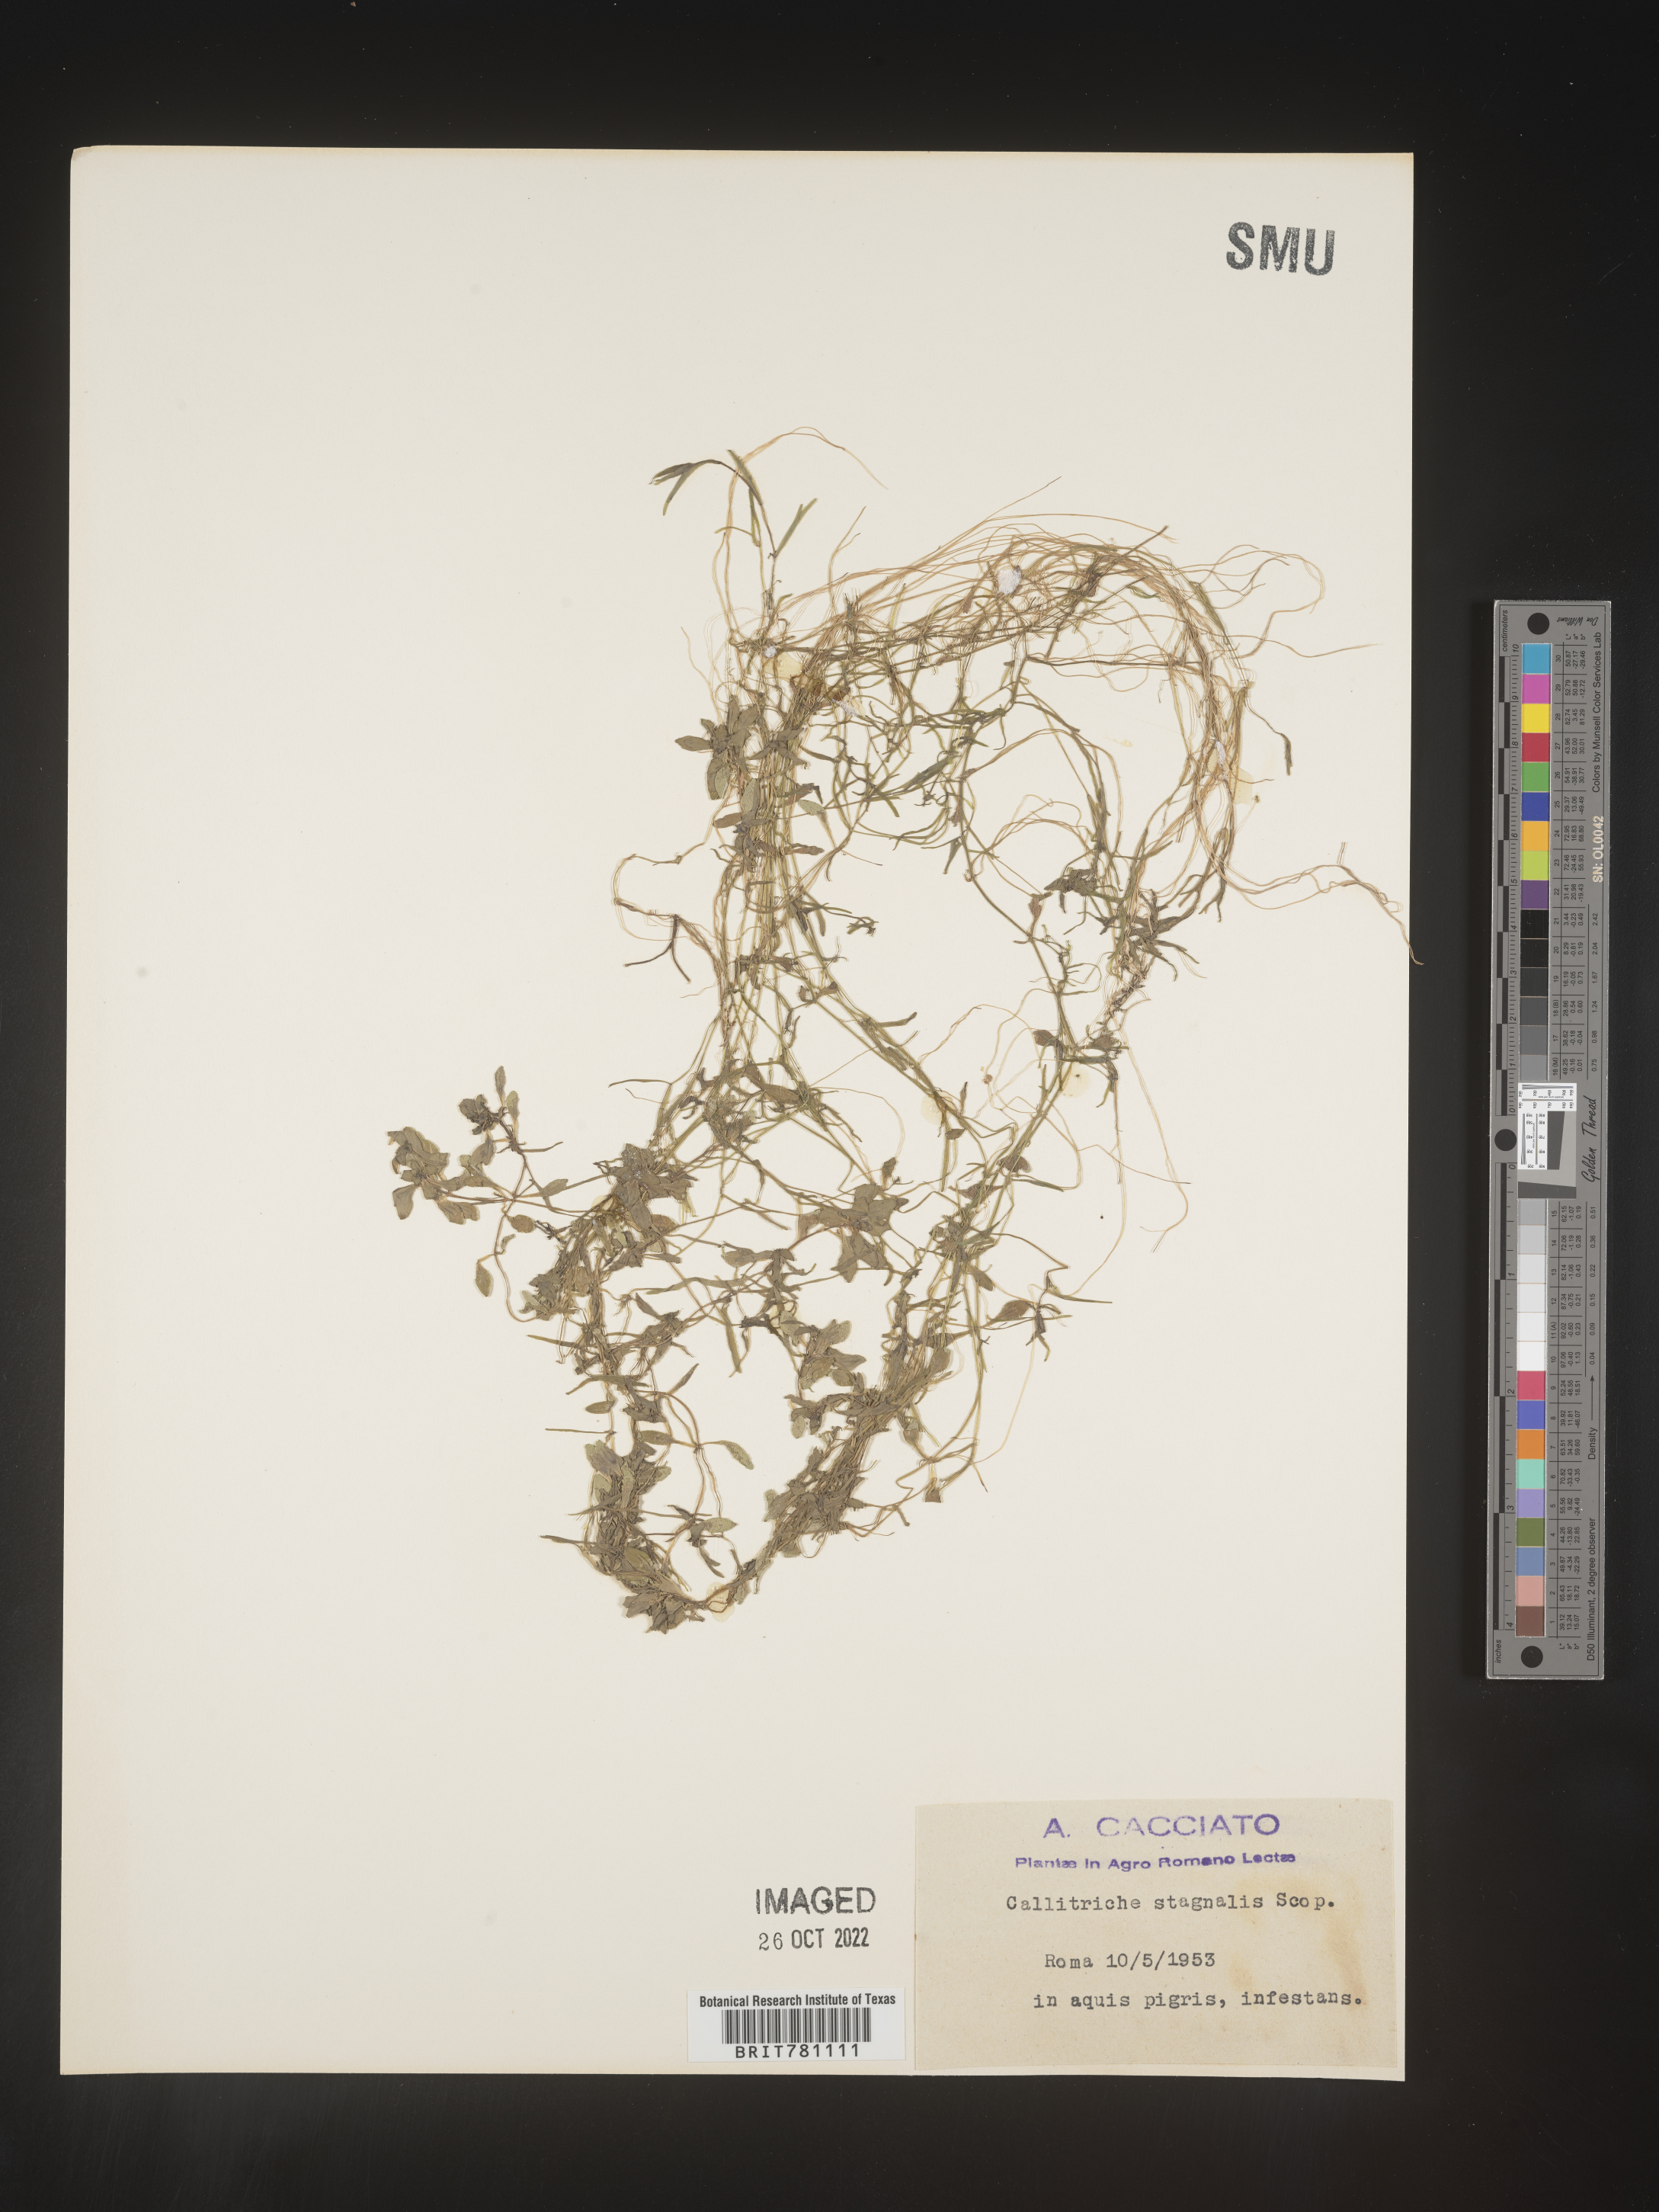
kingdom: Plantae
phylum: Tracheophyta
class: Magnoliopsida
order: Lamiales
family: Plantaginaceae
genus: Callitriche
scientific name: Callitriche
